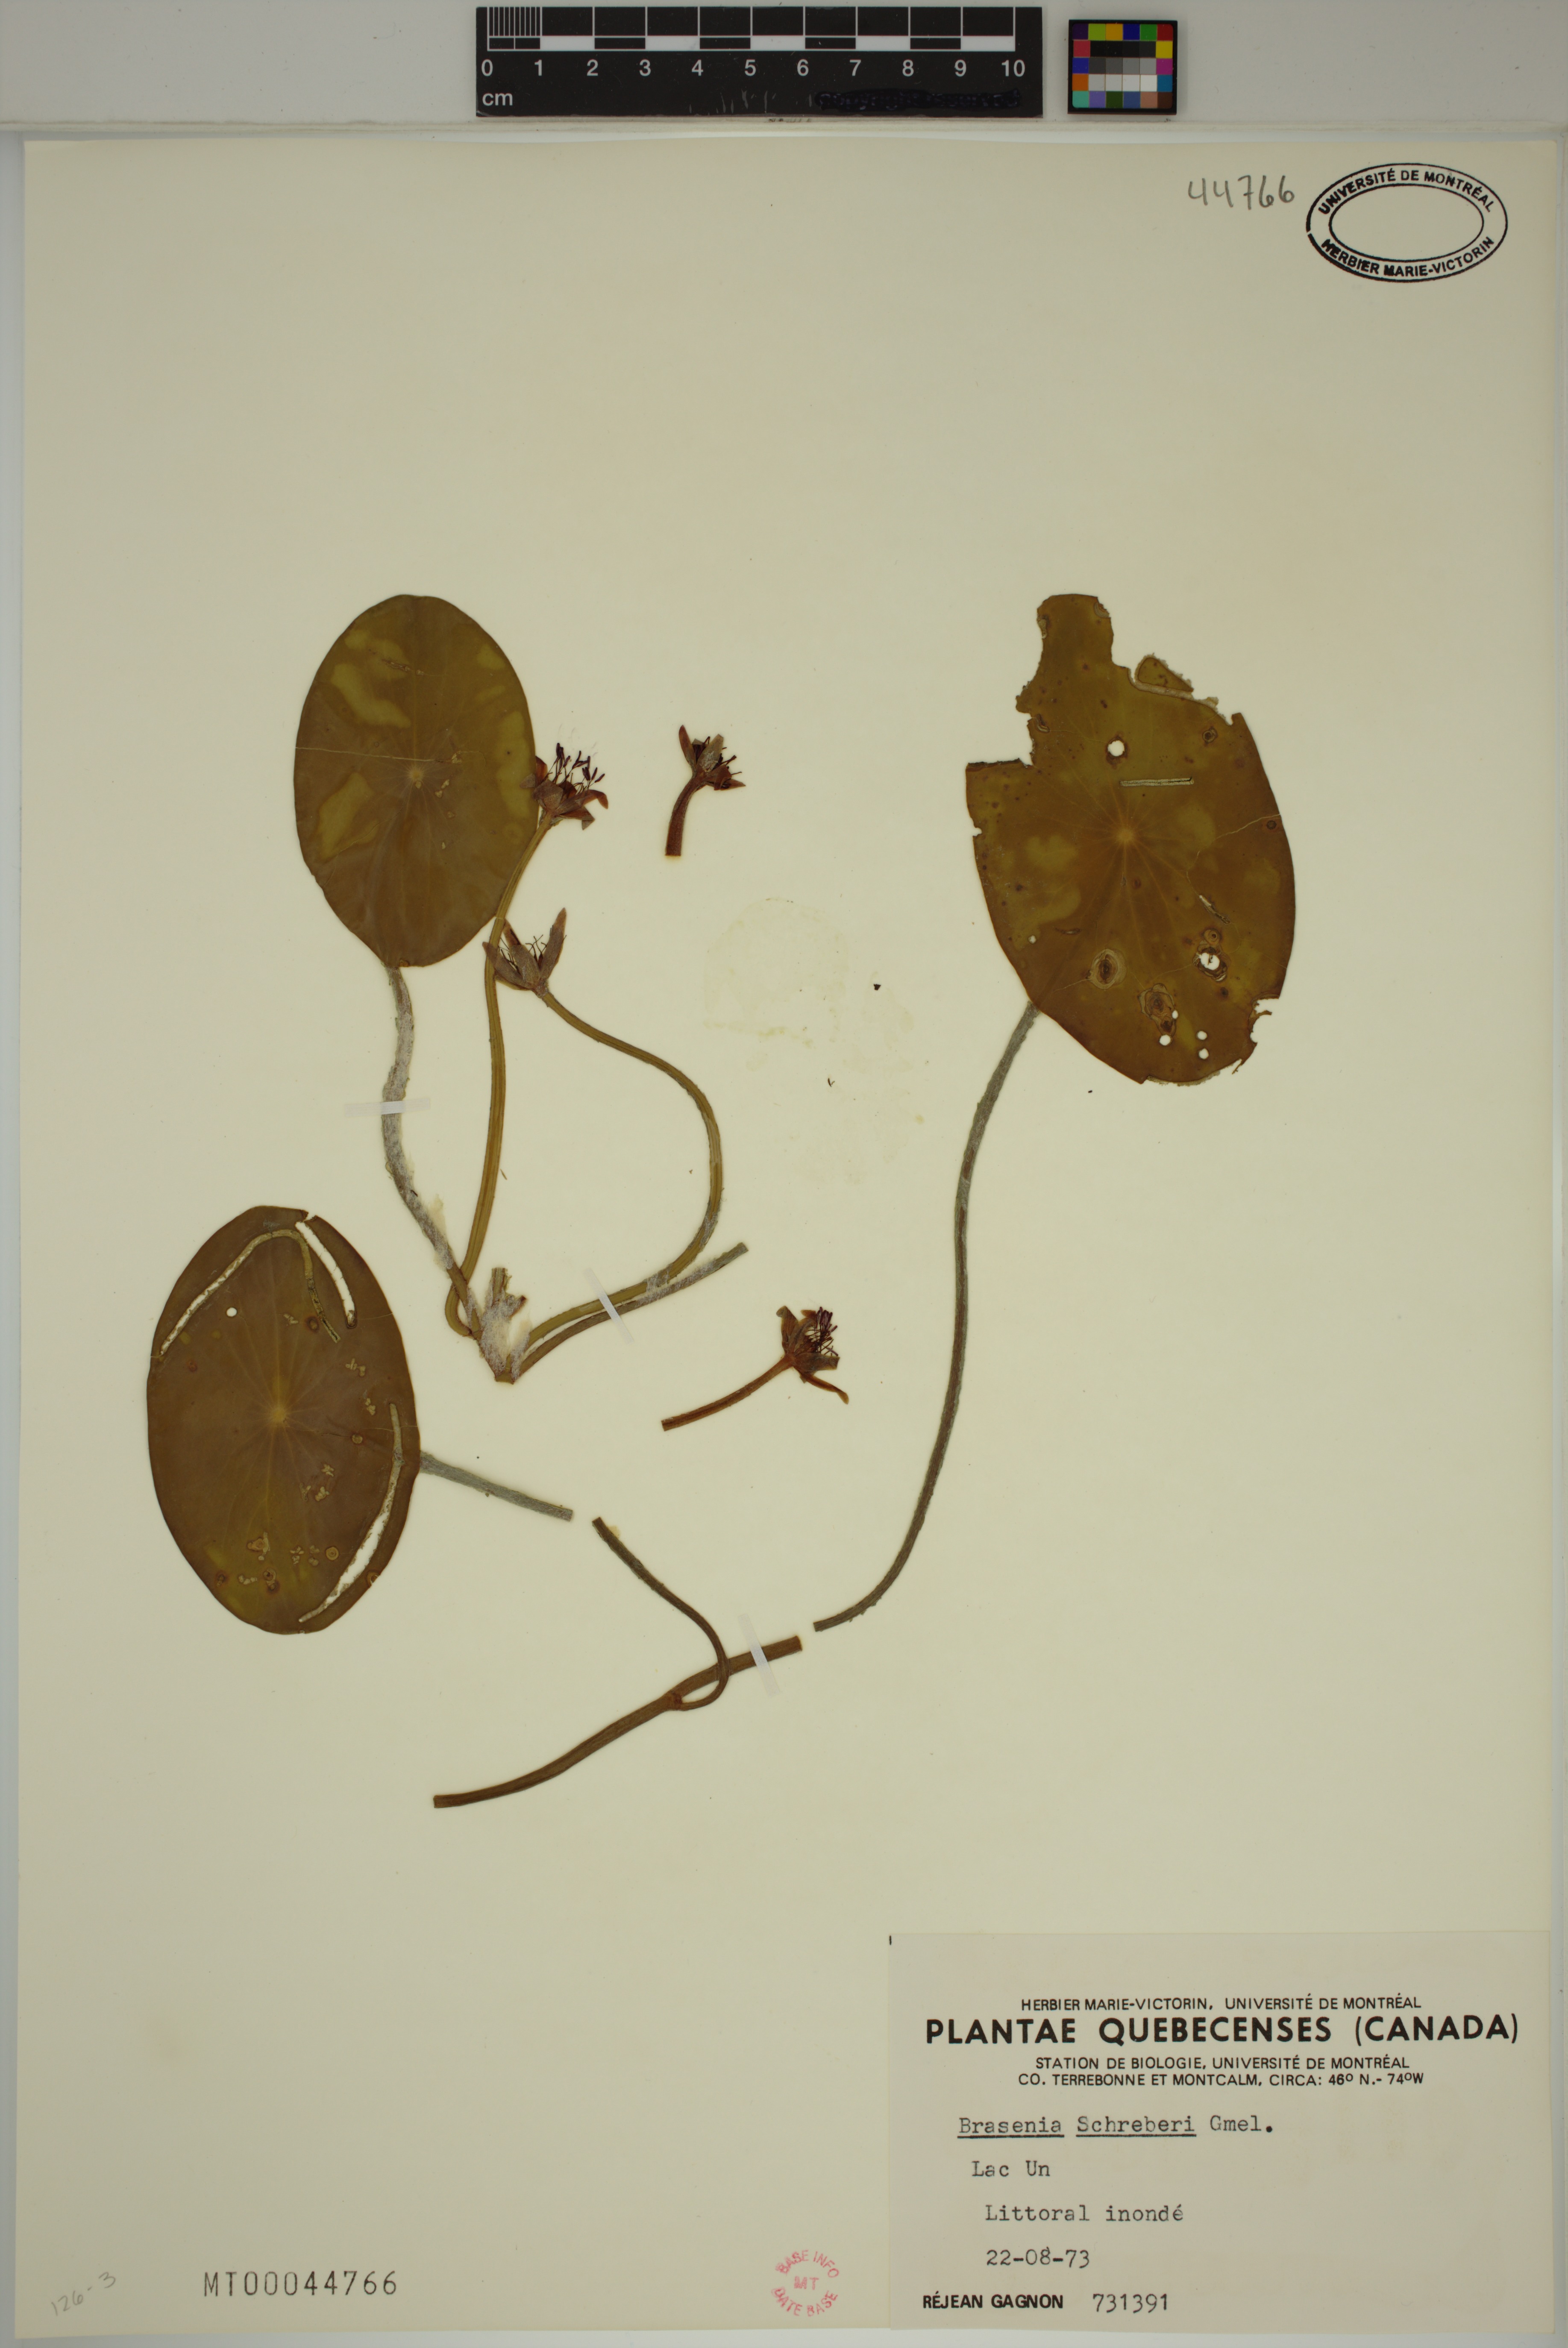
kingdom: Plantae
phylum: Tracheophyta
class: Magnoliopsida
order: Nymphaeales
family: Cabombaceae
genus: Brasenia
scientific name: Brasenia schreberi
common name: Water-shield
